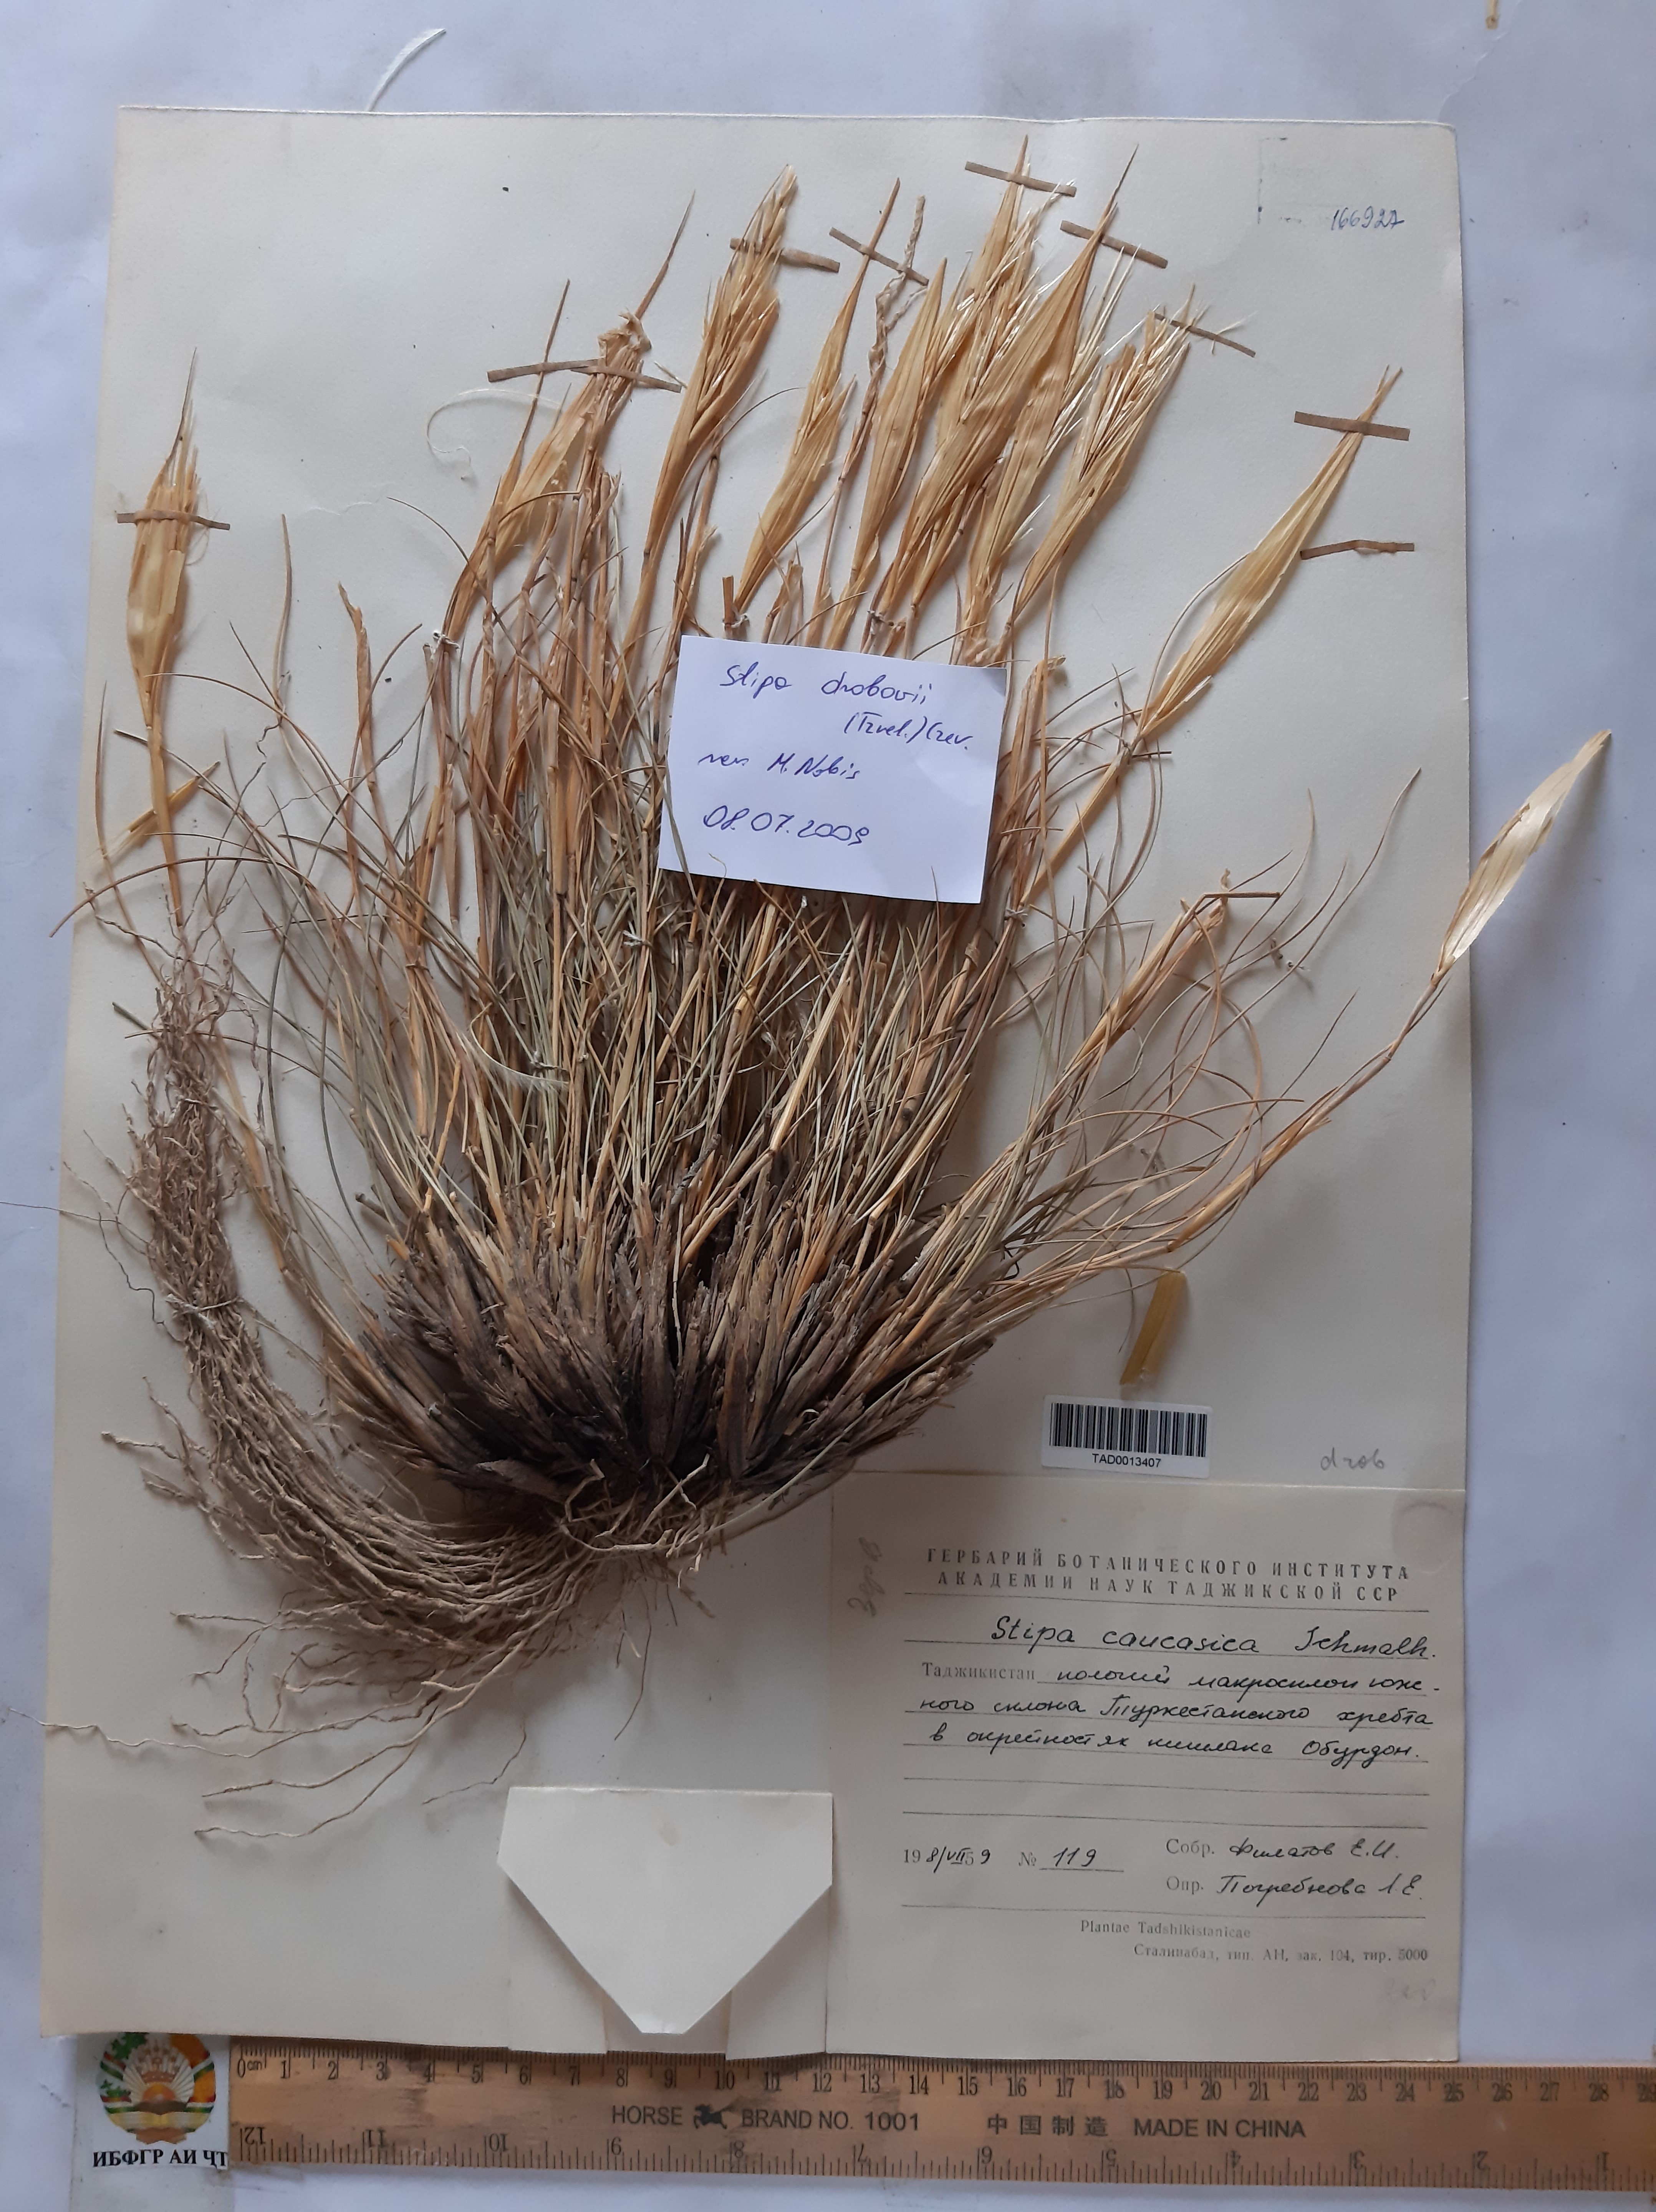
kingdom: Plantae
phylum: Tracheophyta
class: Liliopsida
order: Poales
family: Poaceae
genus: Stipa
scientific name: Stipa caucasica
